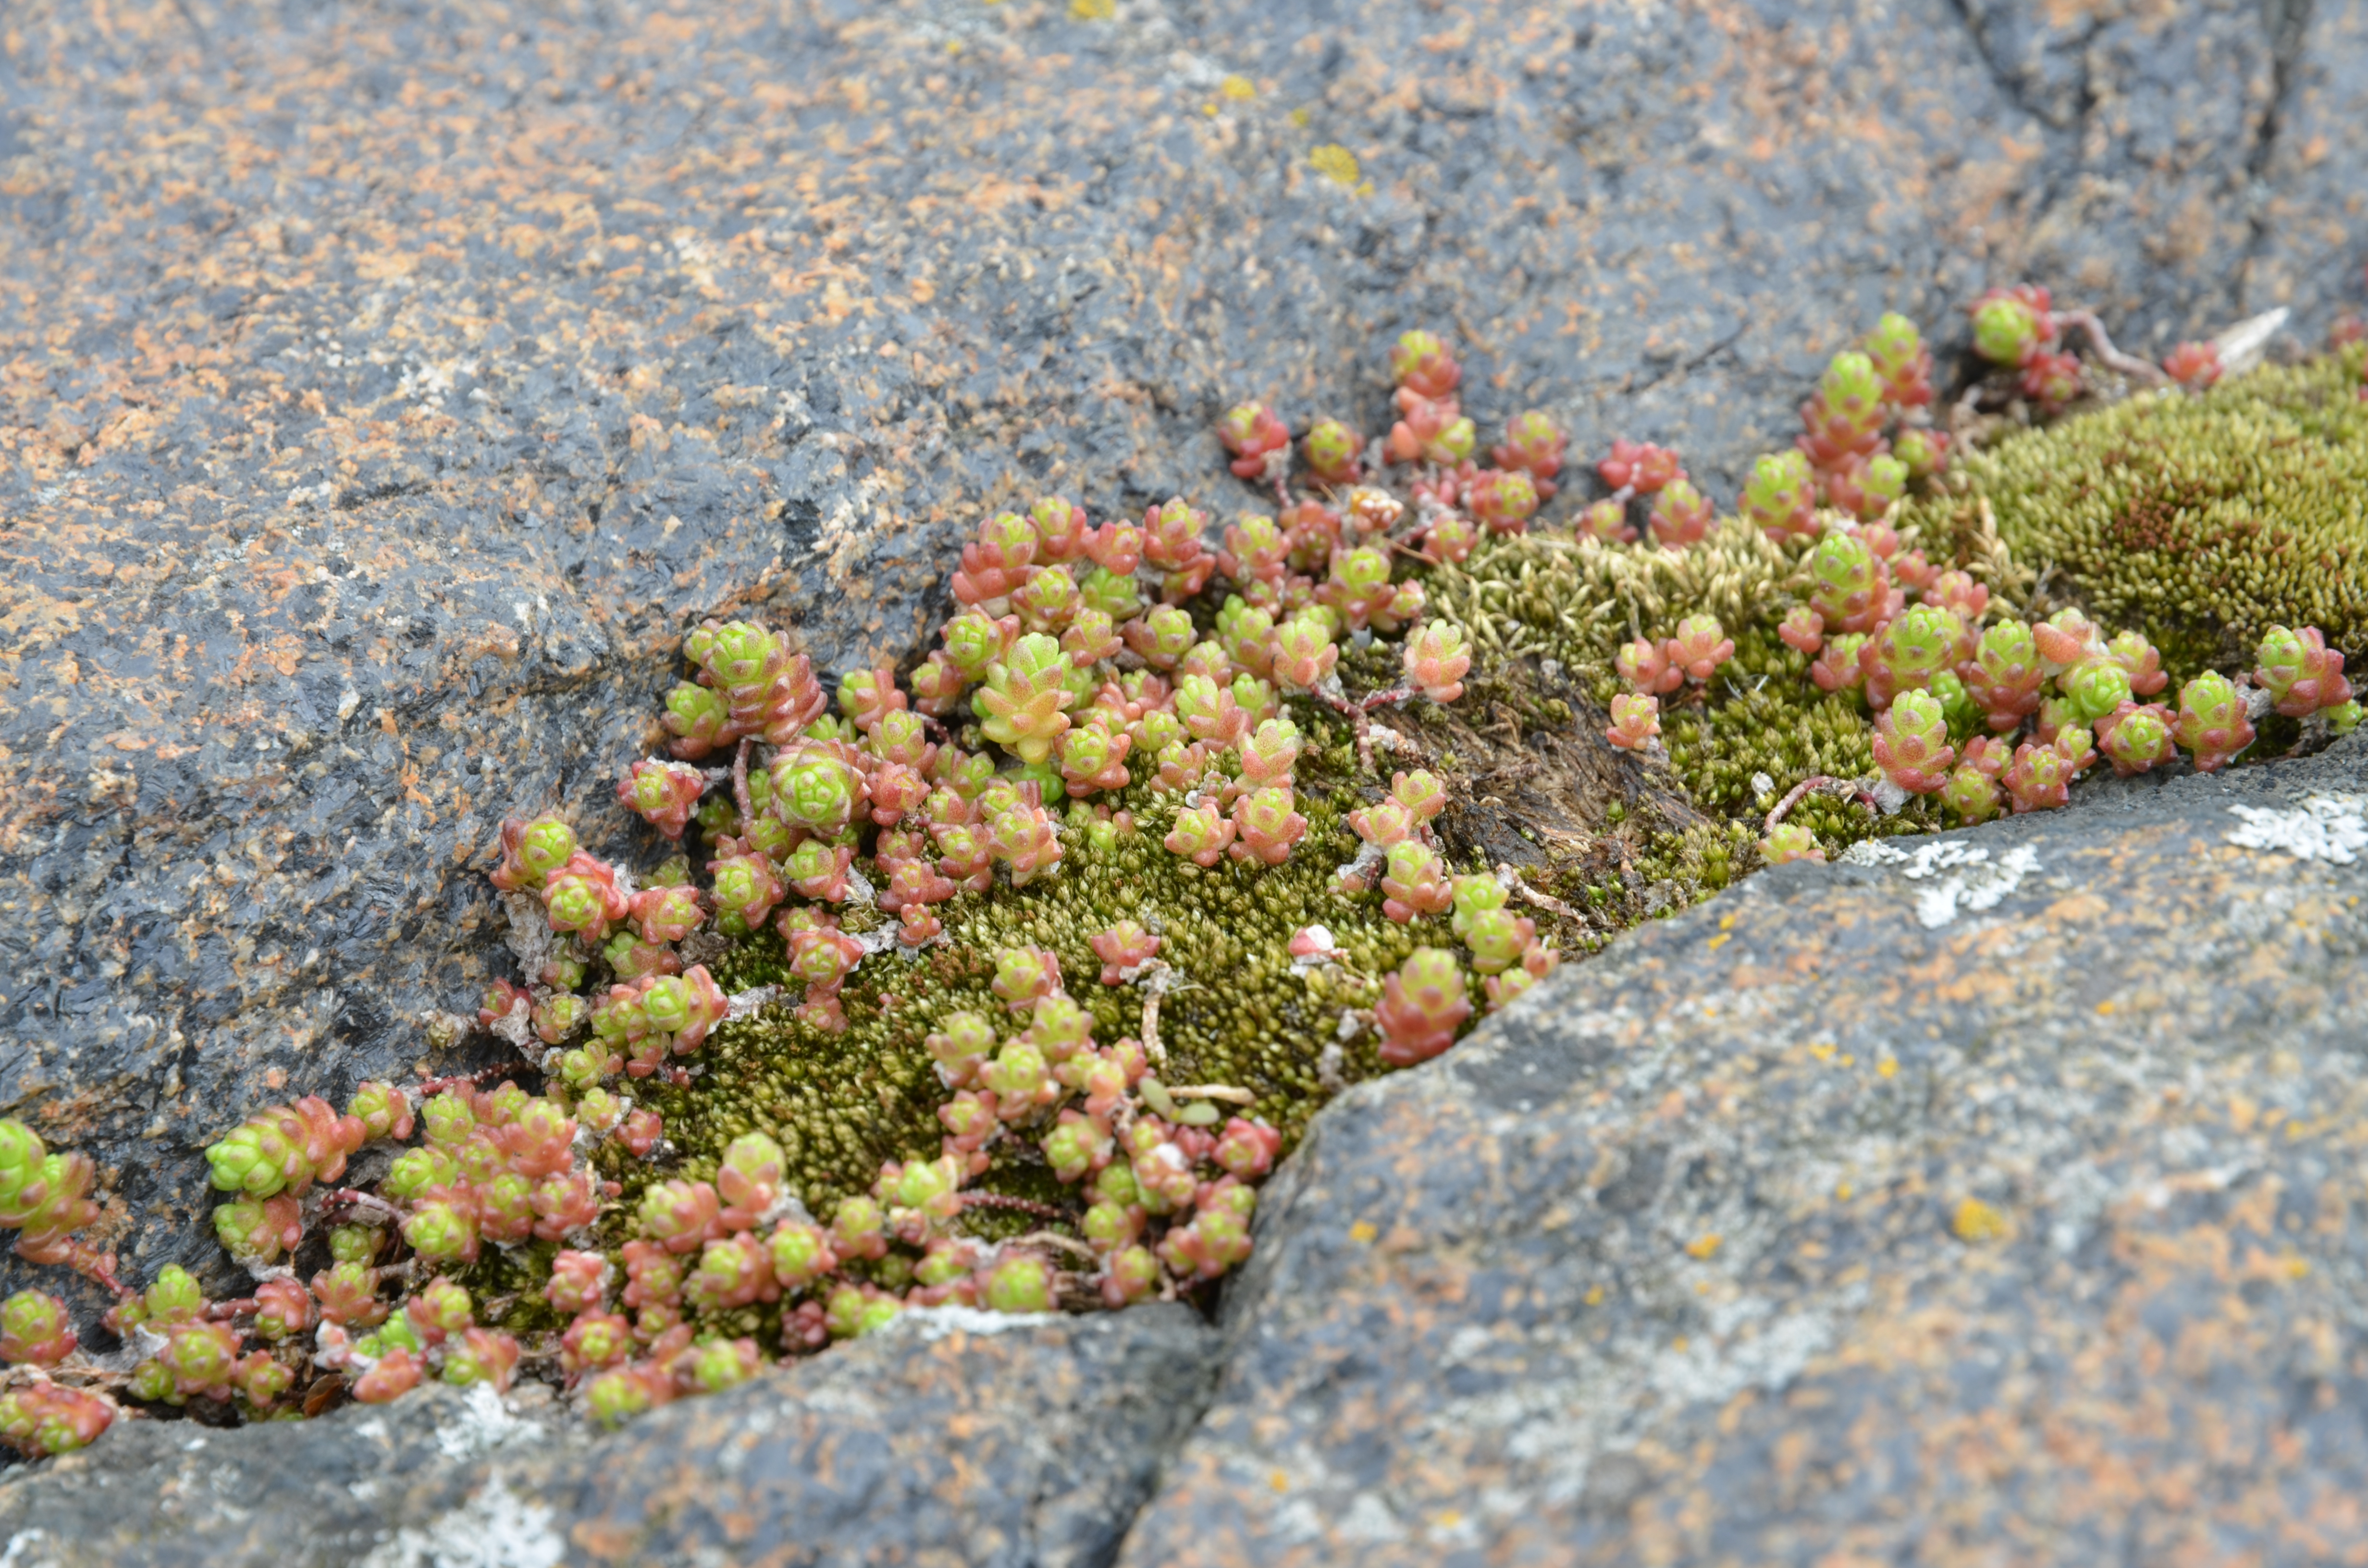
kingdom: Plantae
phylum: Tracheophyta
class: Magnoliopsida
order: Saxifragales
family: Crassulaceae
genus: Sedum
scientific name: Sedum acre
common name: Biting stonecrop
